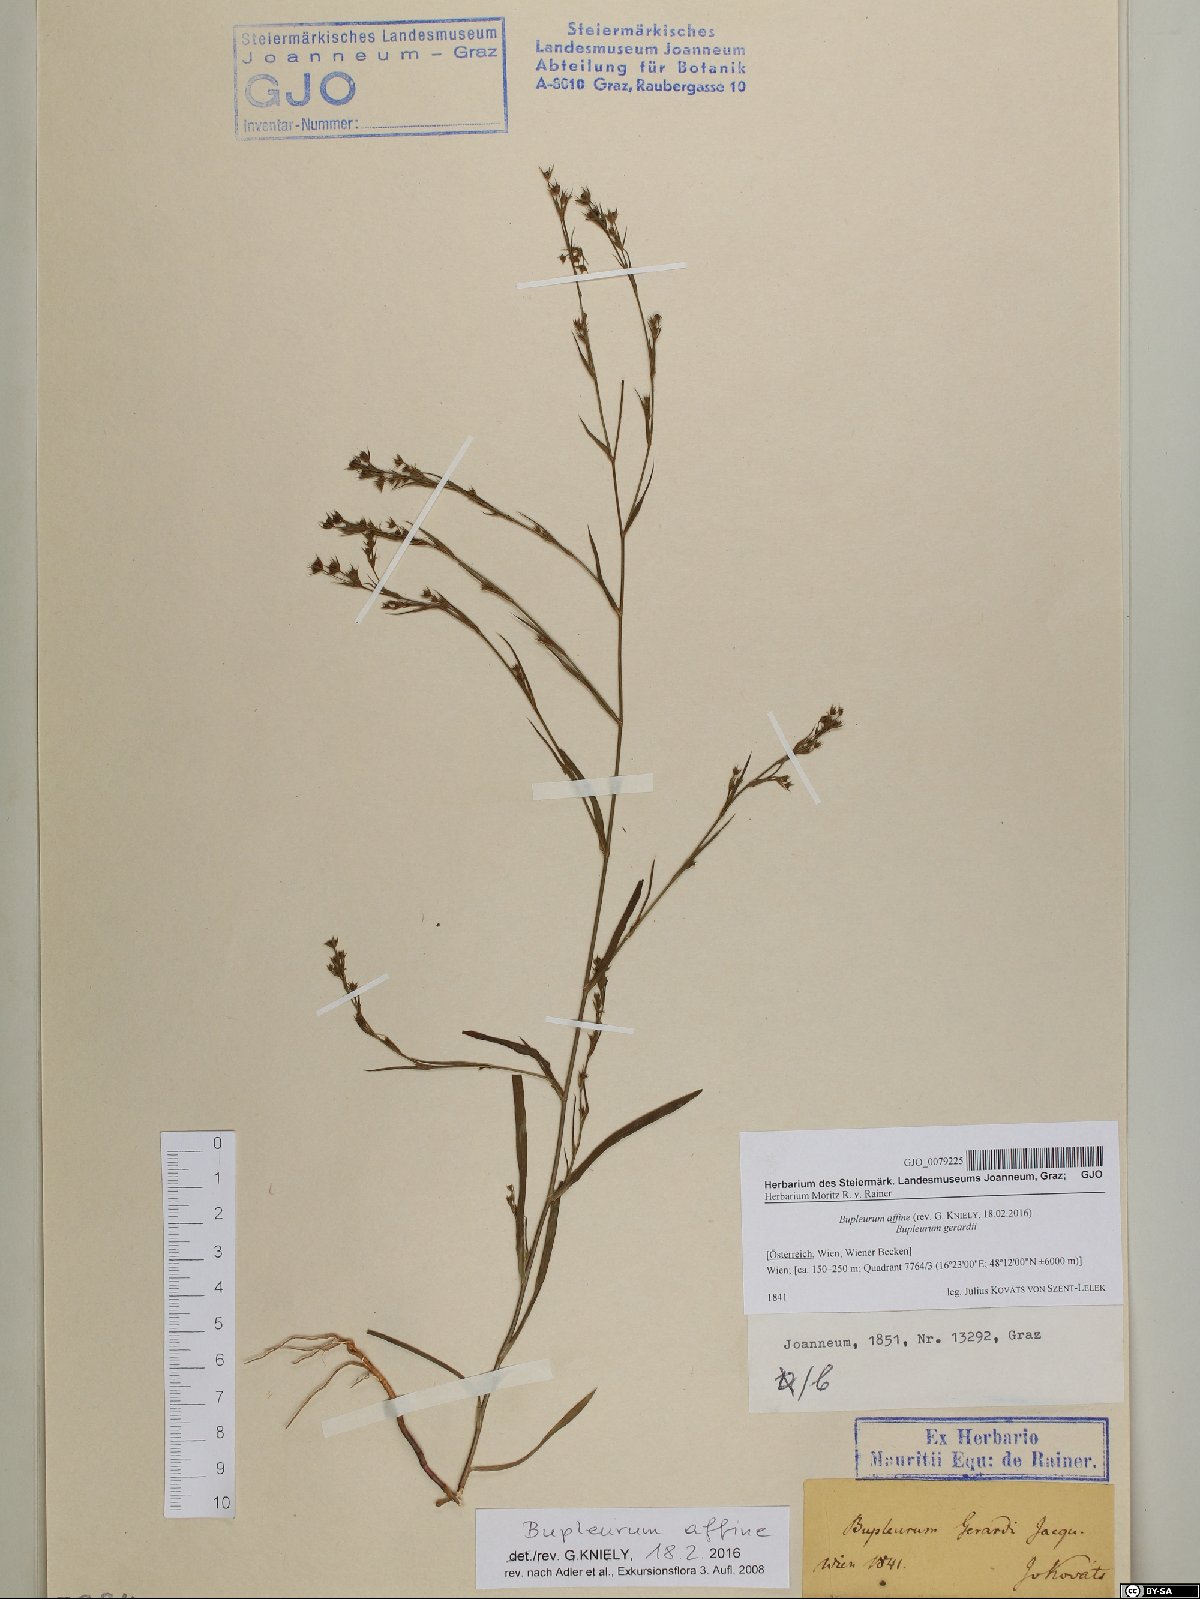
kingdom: Plantae
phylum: Tracheophyta
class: Magnoliopsida
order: Apiales
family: Apiaceae
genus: Bupleurum
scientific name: Bupleurum affine
